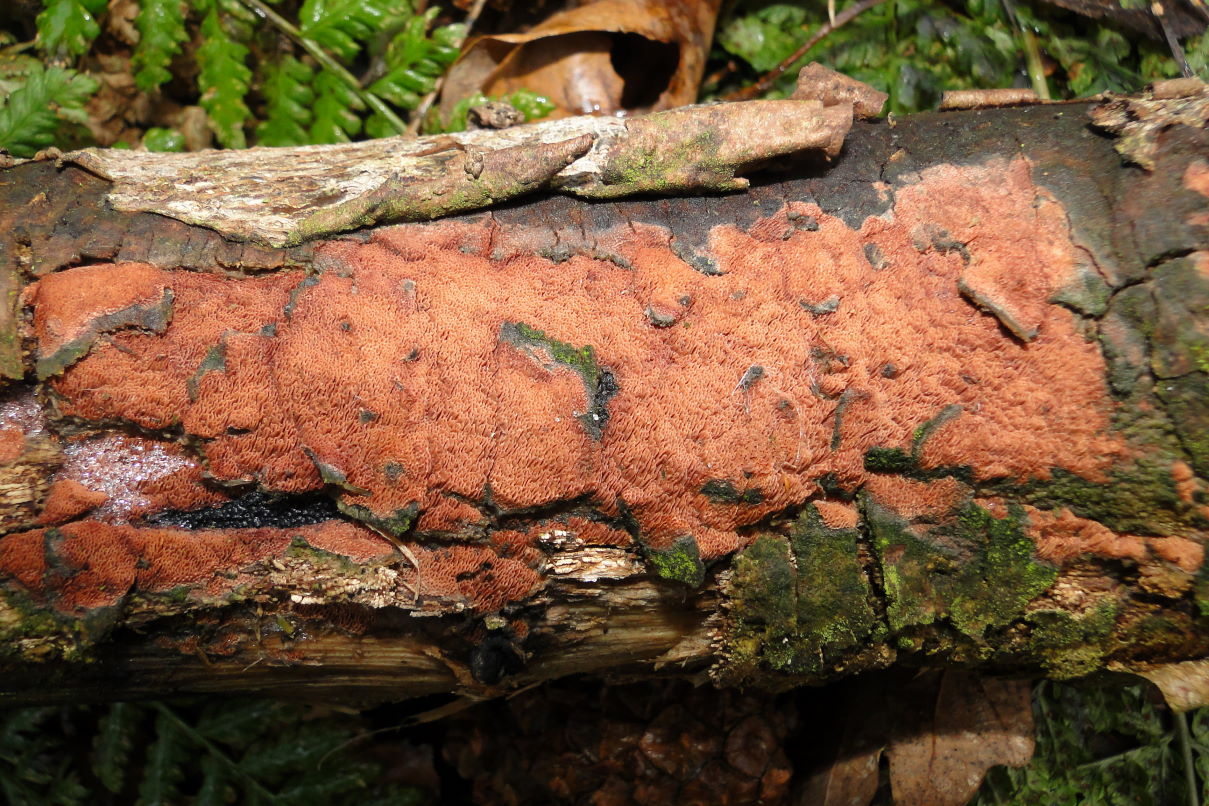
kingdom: Fungi
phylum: Basidiomycota
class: Agaricomycetes
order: Polyporales
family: Irpicaceae
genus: Ceriporia
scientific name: Ceriporia purpurea
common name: purpur-voksporesvamp
